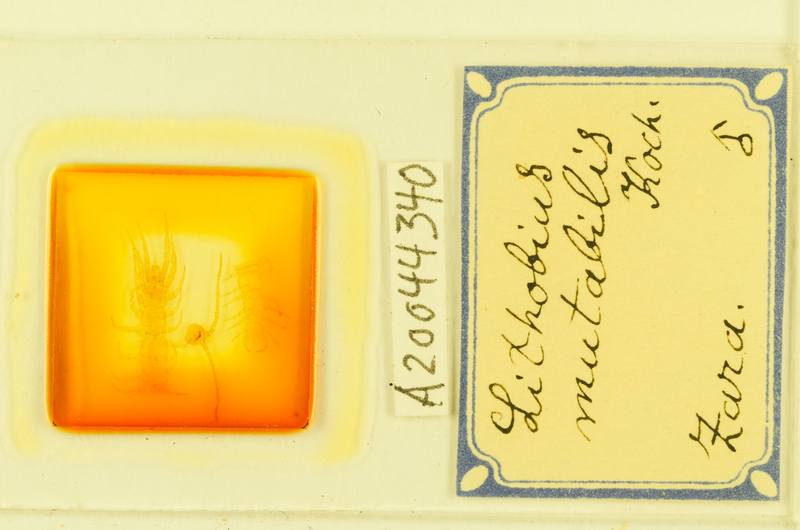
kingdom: Animalia
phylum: Arthropoda
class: Chilopoda
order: Lithobiomorpha
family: Lithobiidae
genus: Lithobius
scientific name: Lithobius mutabilis
